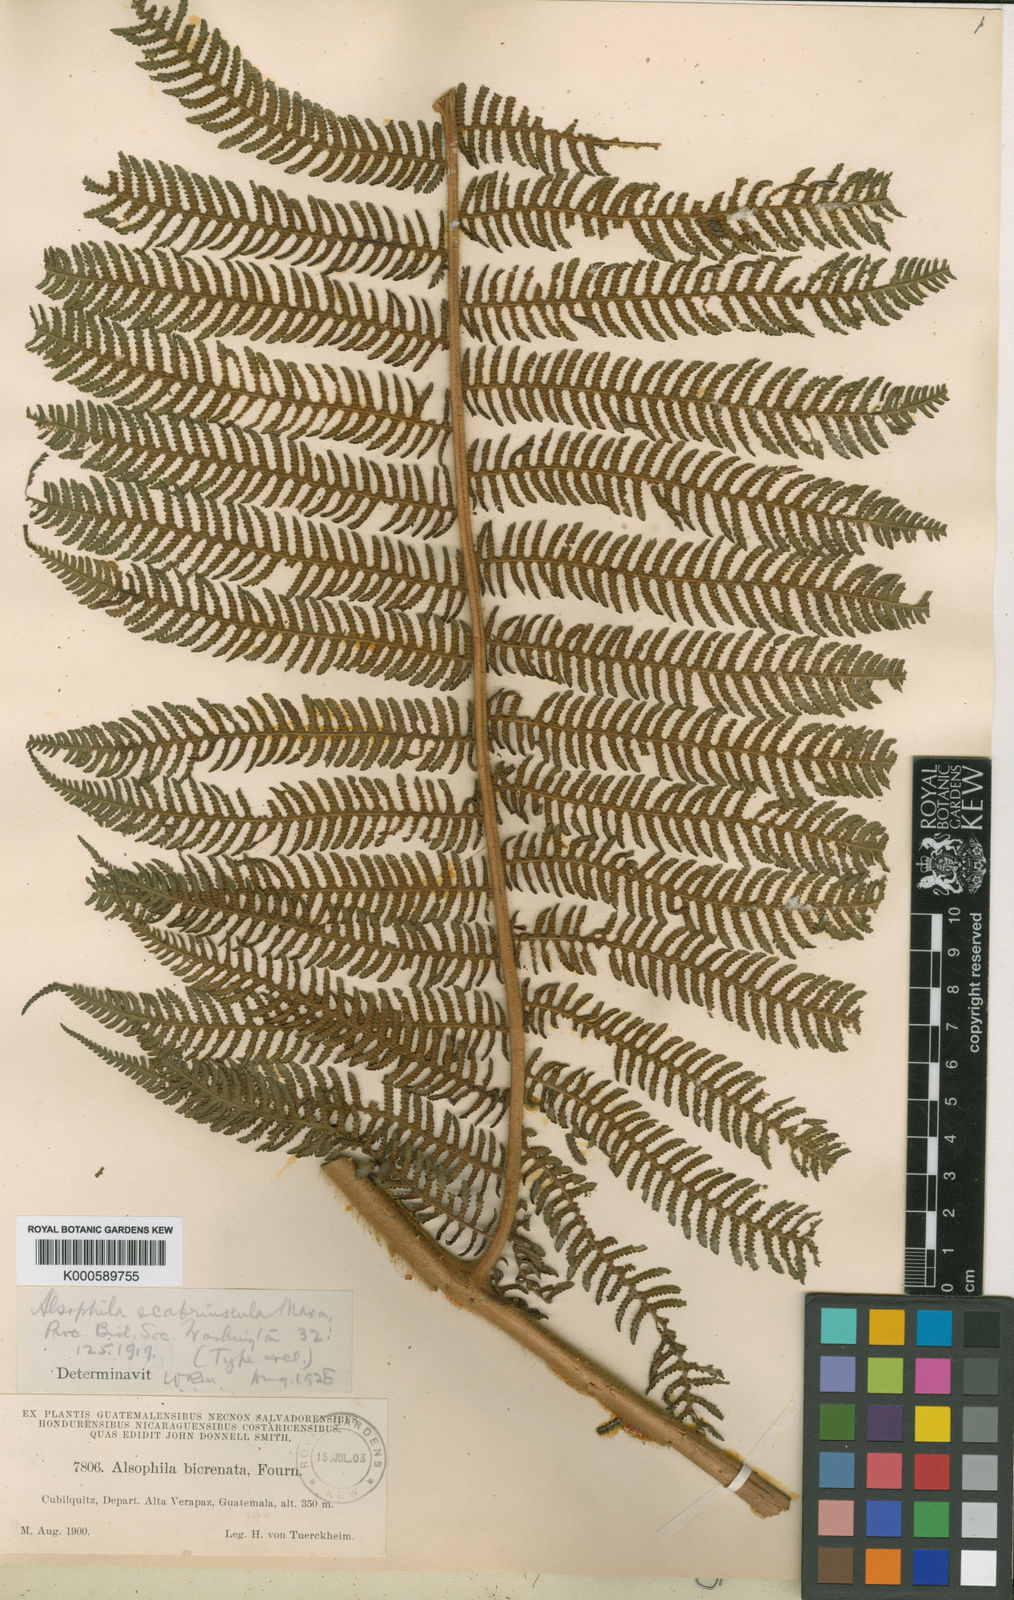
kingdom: Plantae
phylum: Tracheophyta
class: Polypodiopsida
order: Cyatheales
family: Cyatheaceae
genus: Cyathea
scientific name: Cyathea bicrenata
